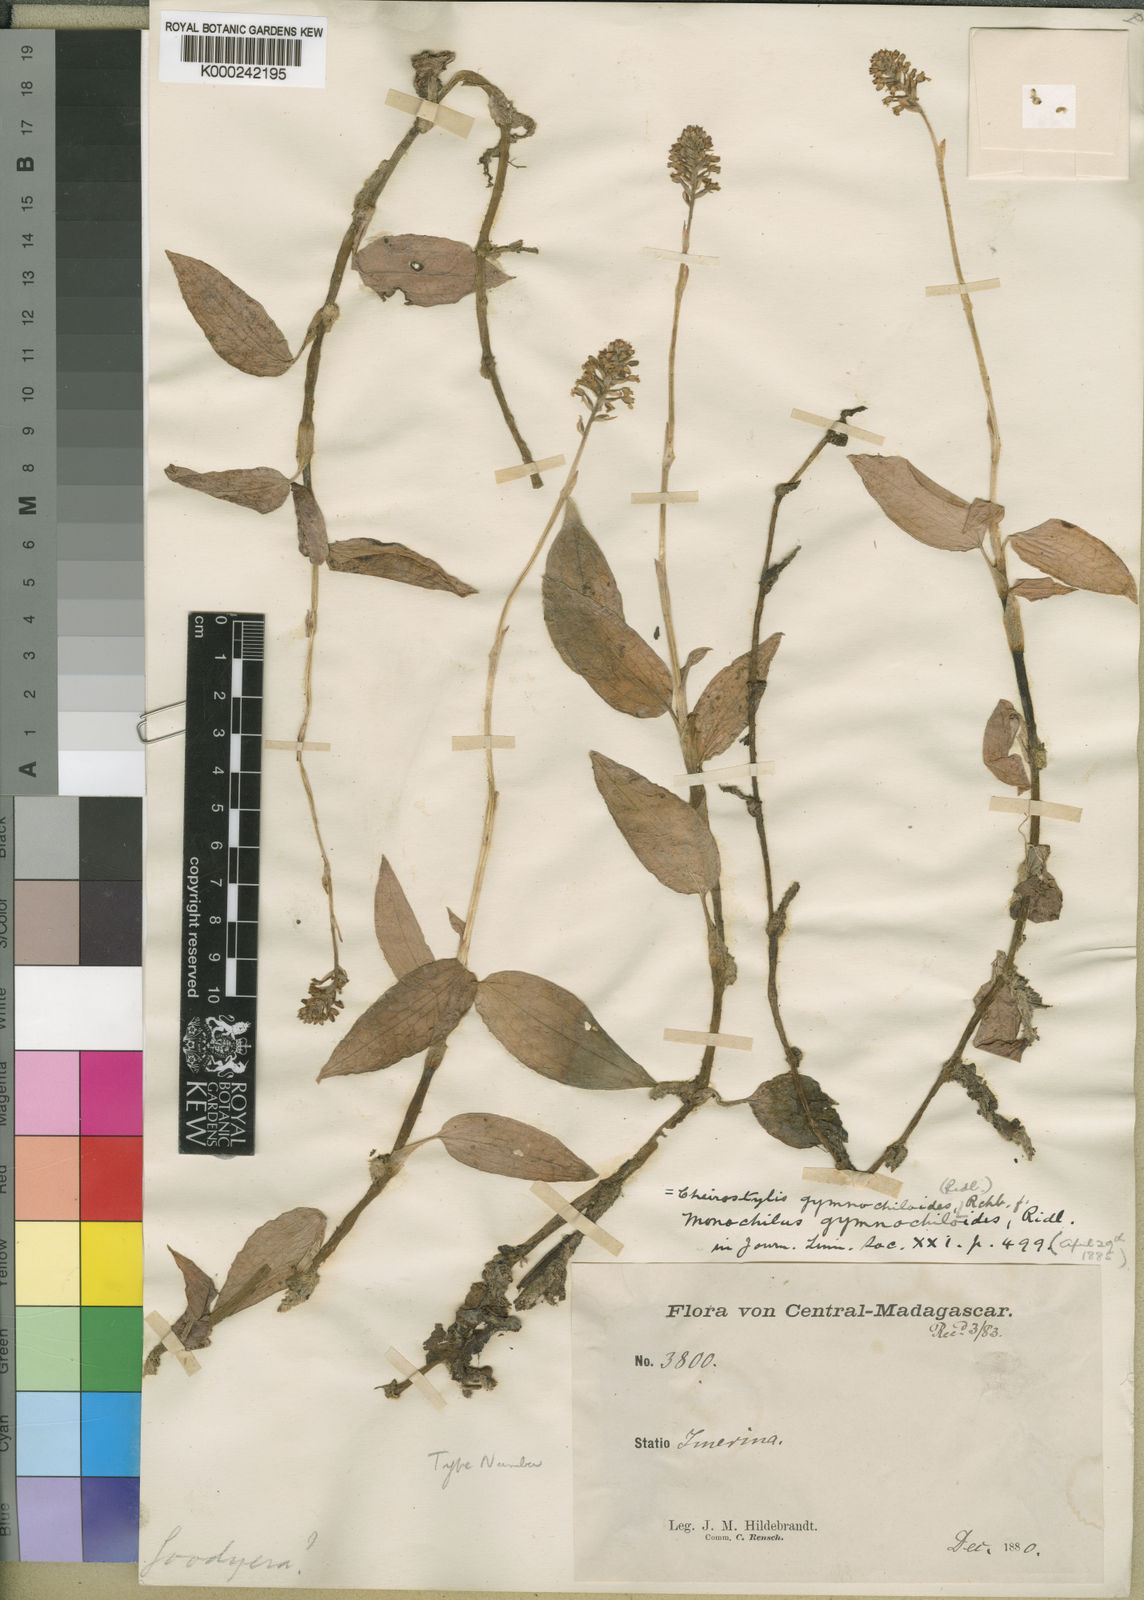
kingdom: Plantae
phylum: Tracheophyta
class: Liliopsida
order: Asparagales
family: Orchidaceae
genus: Cheirostylis
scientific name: Cheirostylis nuda
